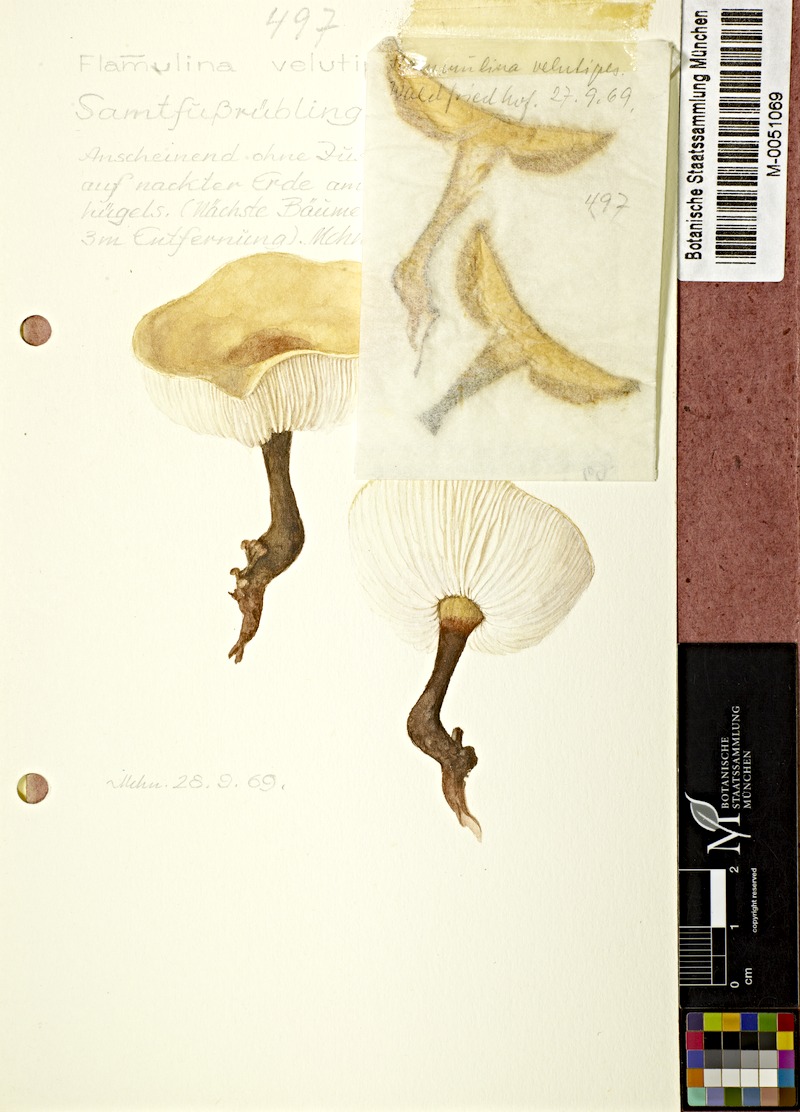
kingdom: Fungi
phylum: Basidiomycota
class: Agaricomycetes
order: Agaricales
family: Physalacriaceae
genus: Flammulina
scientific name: Flammulina velutipes
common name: Velvet shank
